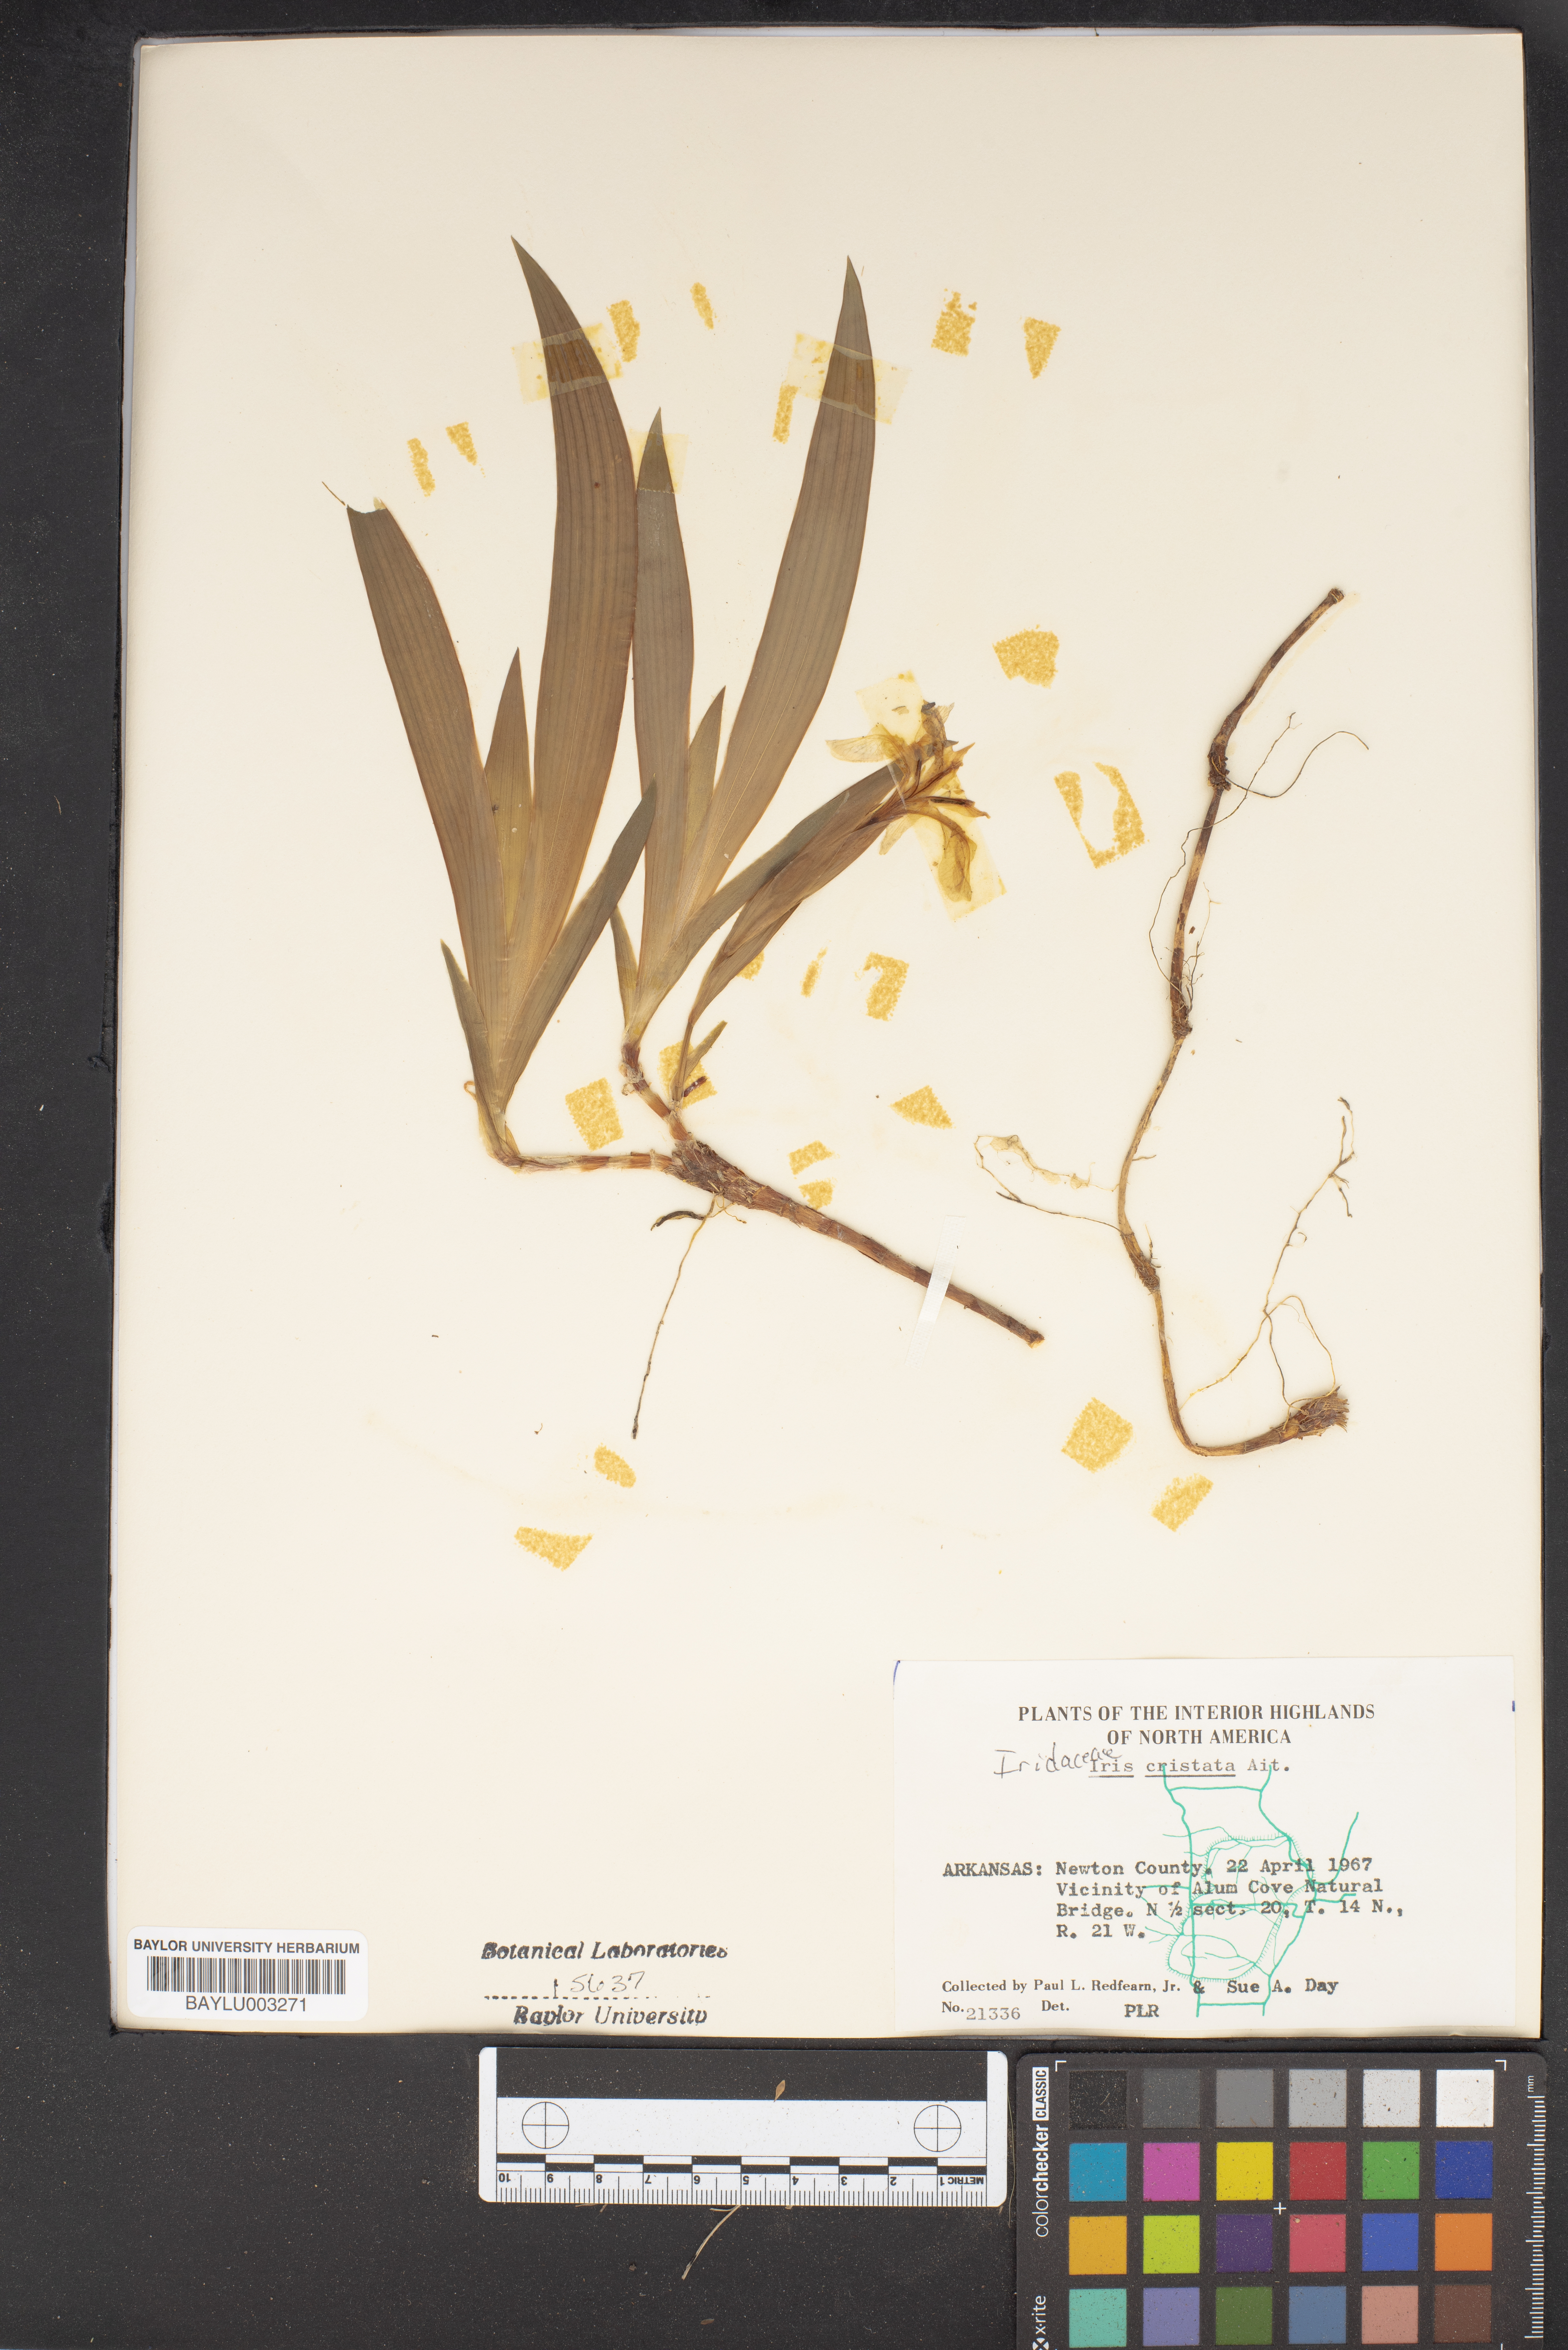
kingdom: Plantae
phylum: Tracheophyta
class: Liliopsida
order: Asparagales
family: Iridaceae
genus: Iris
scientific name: Iris cristata
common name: Crested iris
